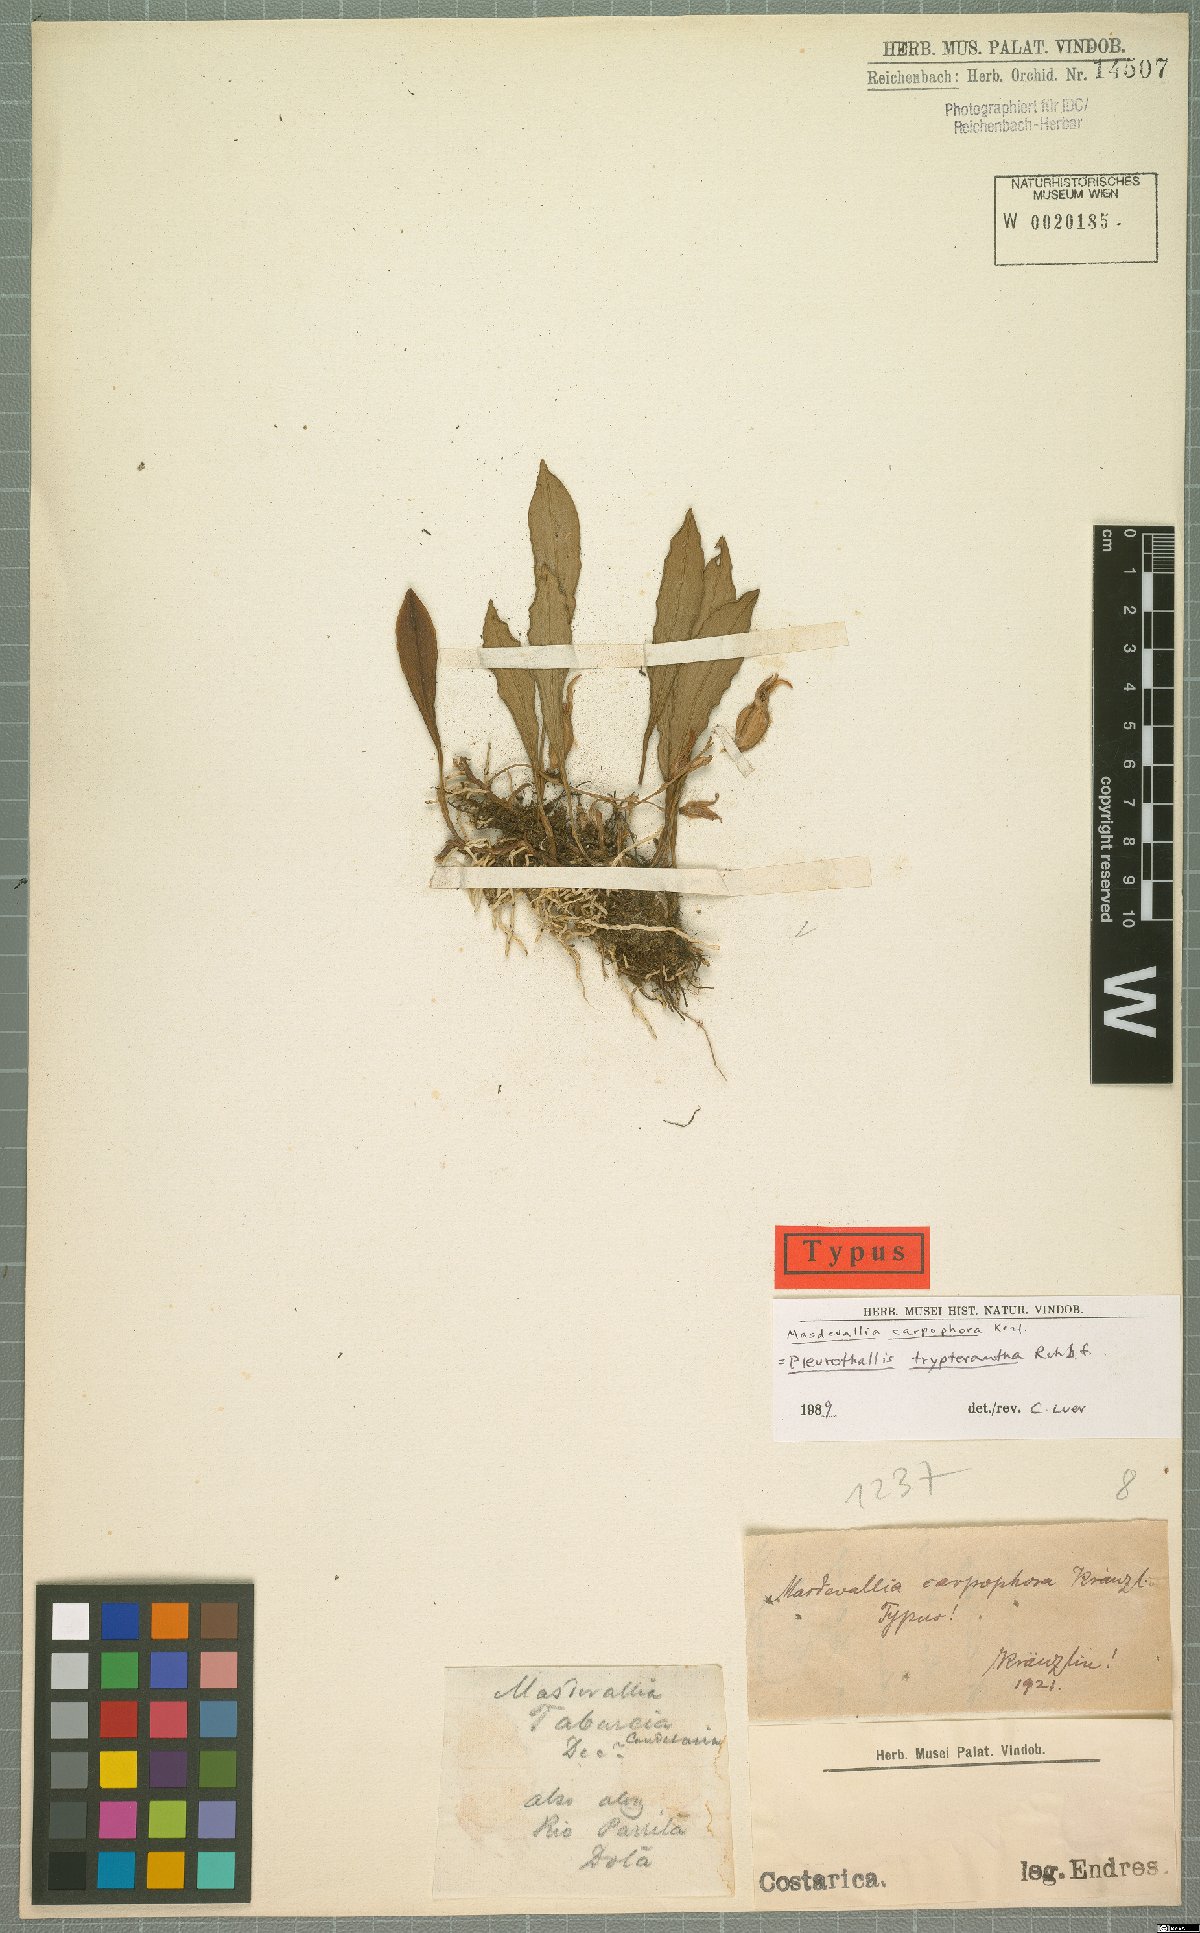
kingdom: Plantae
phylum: Tracheophyta
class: Liliopsida
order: Asparagales
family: Orchidaceae
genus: Pabstiella
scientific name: Pabstiella tripterantha
